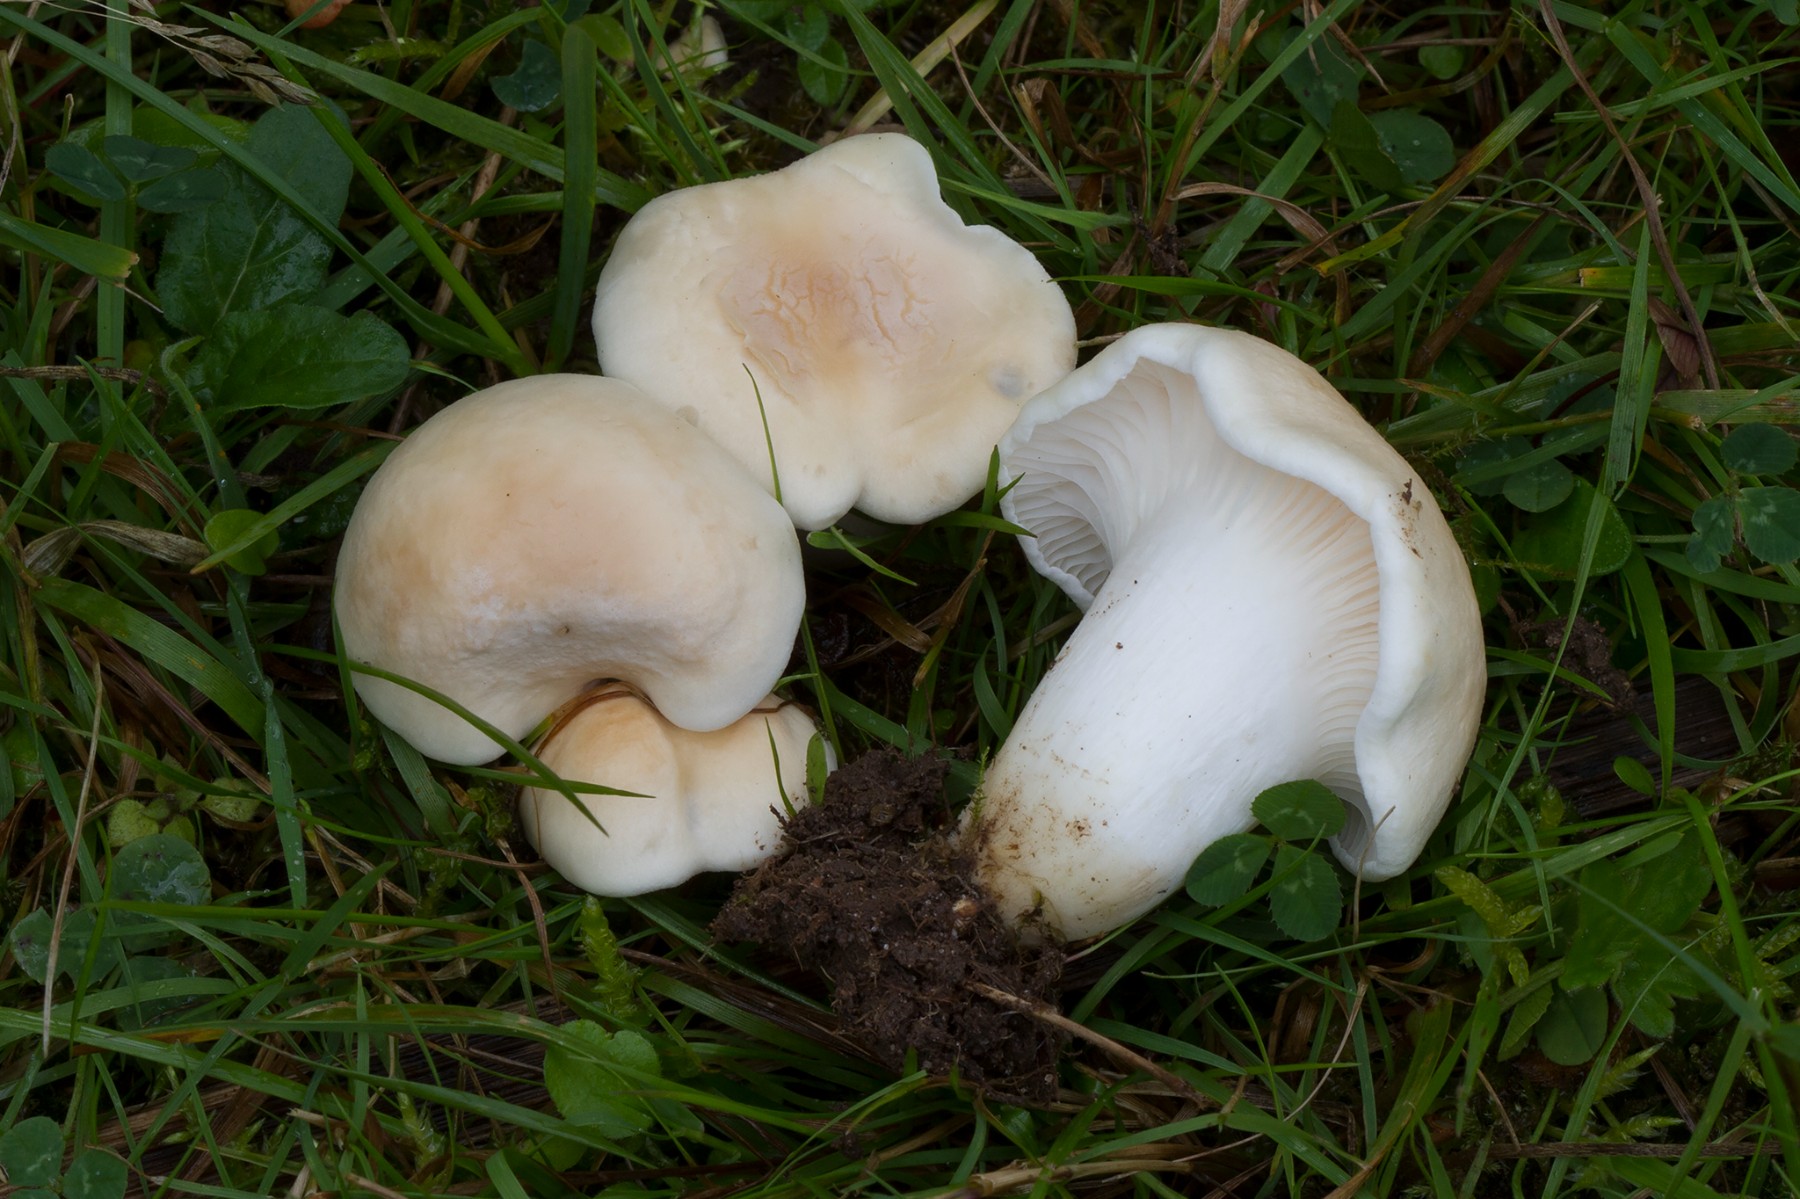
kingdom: Fungi
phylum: Basidiomycota
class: Agaricomycetes
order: Agaricales
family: Hygrophoraceae
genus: Cuphophyllus
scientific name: Cuphophyllus pratensis
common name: bleg vokshat
